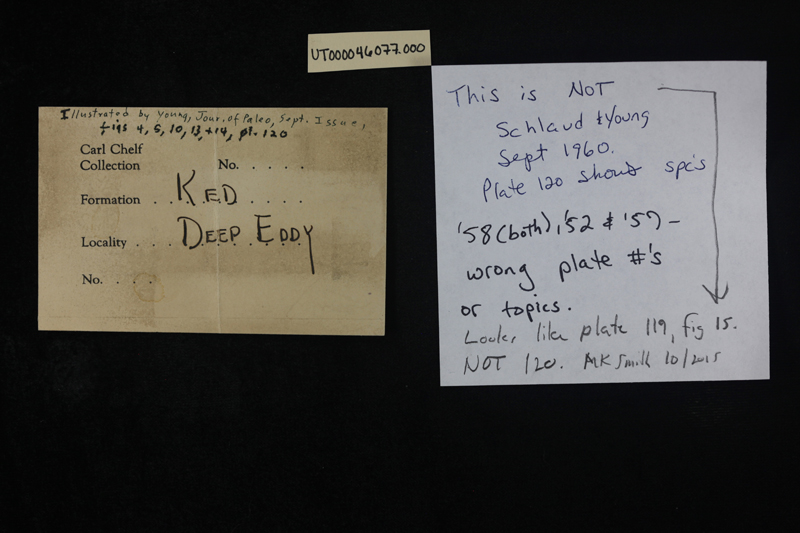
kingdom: Animalia
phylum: Mollusca
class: Gastropoda
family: Ceritellidae
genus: Ceritella
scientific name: Ceritella
